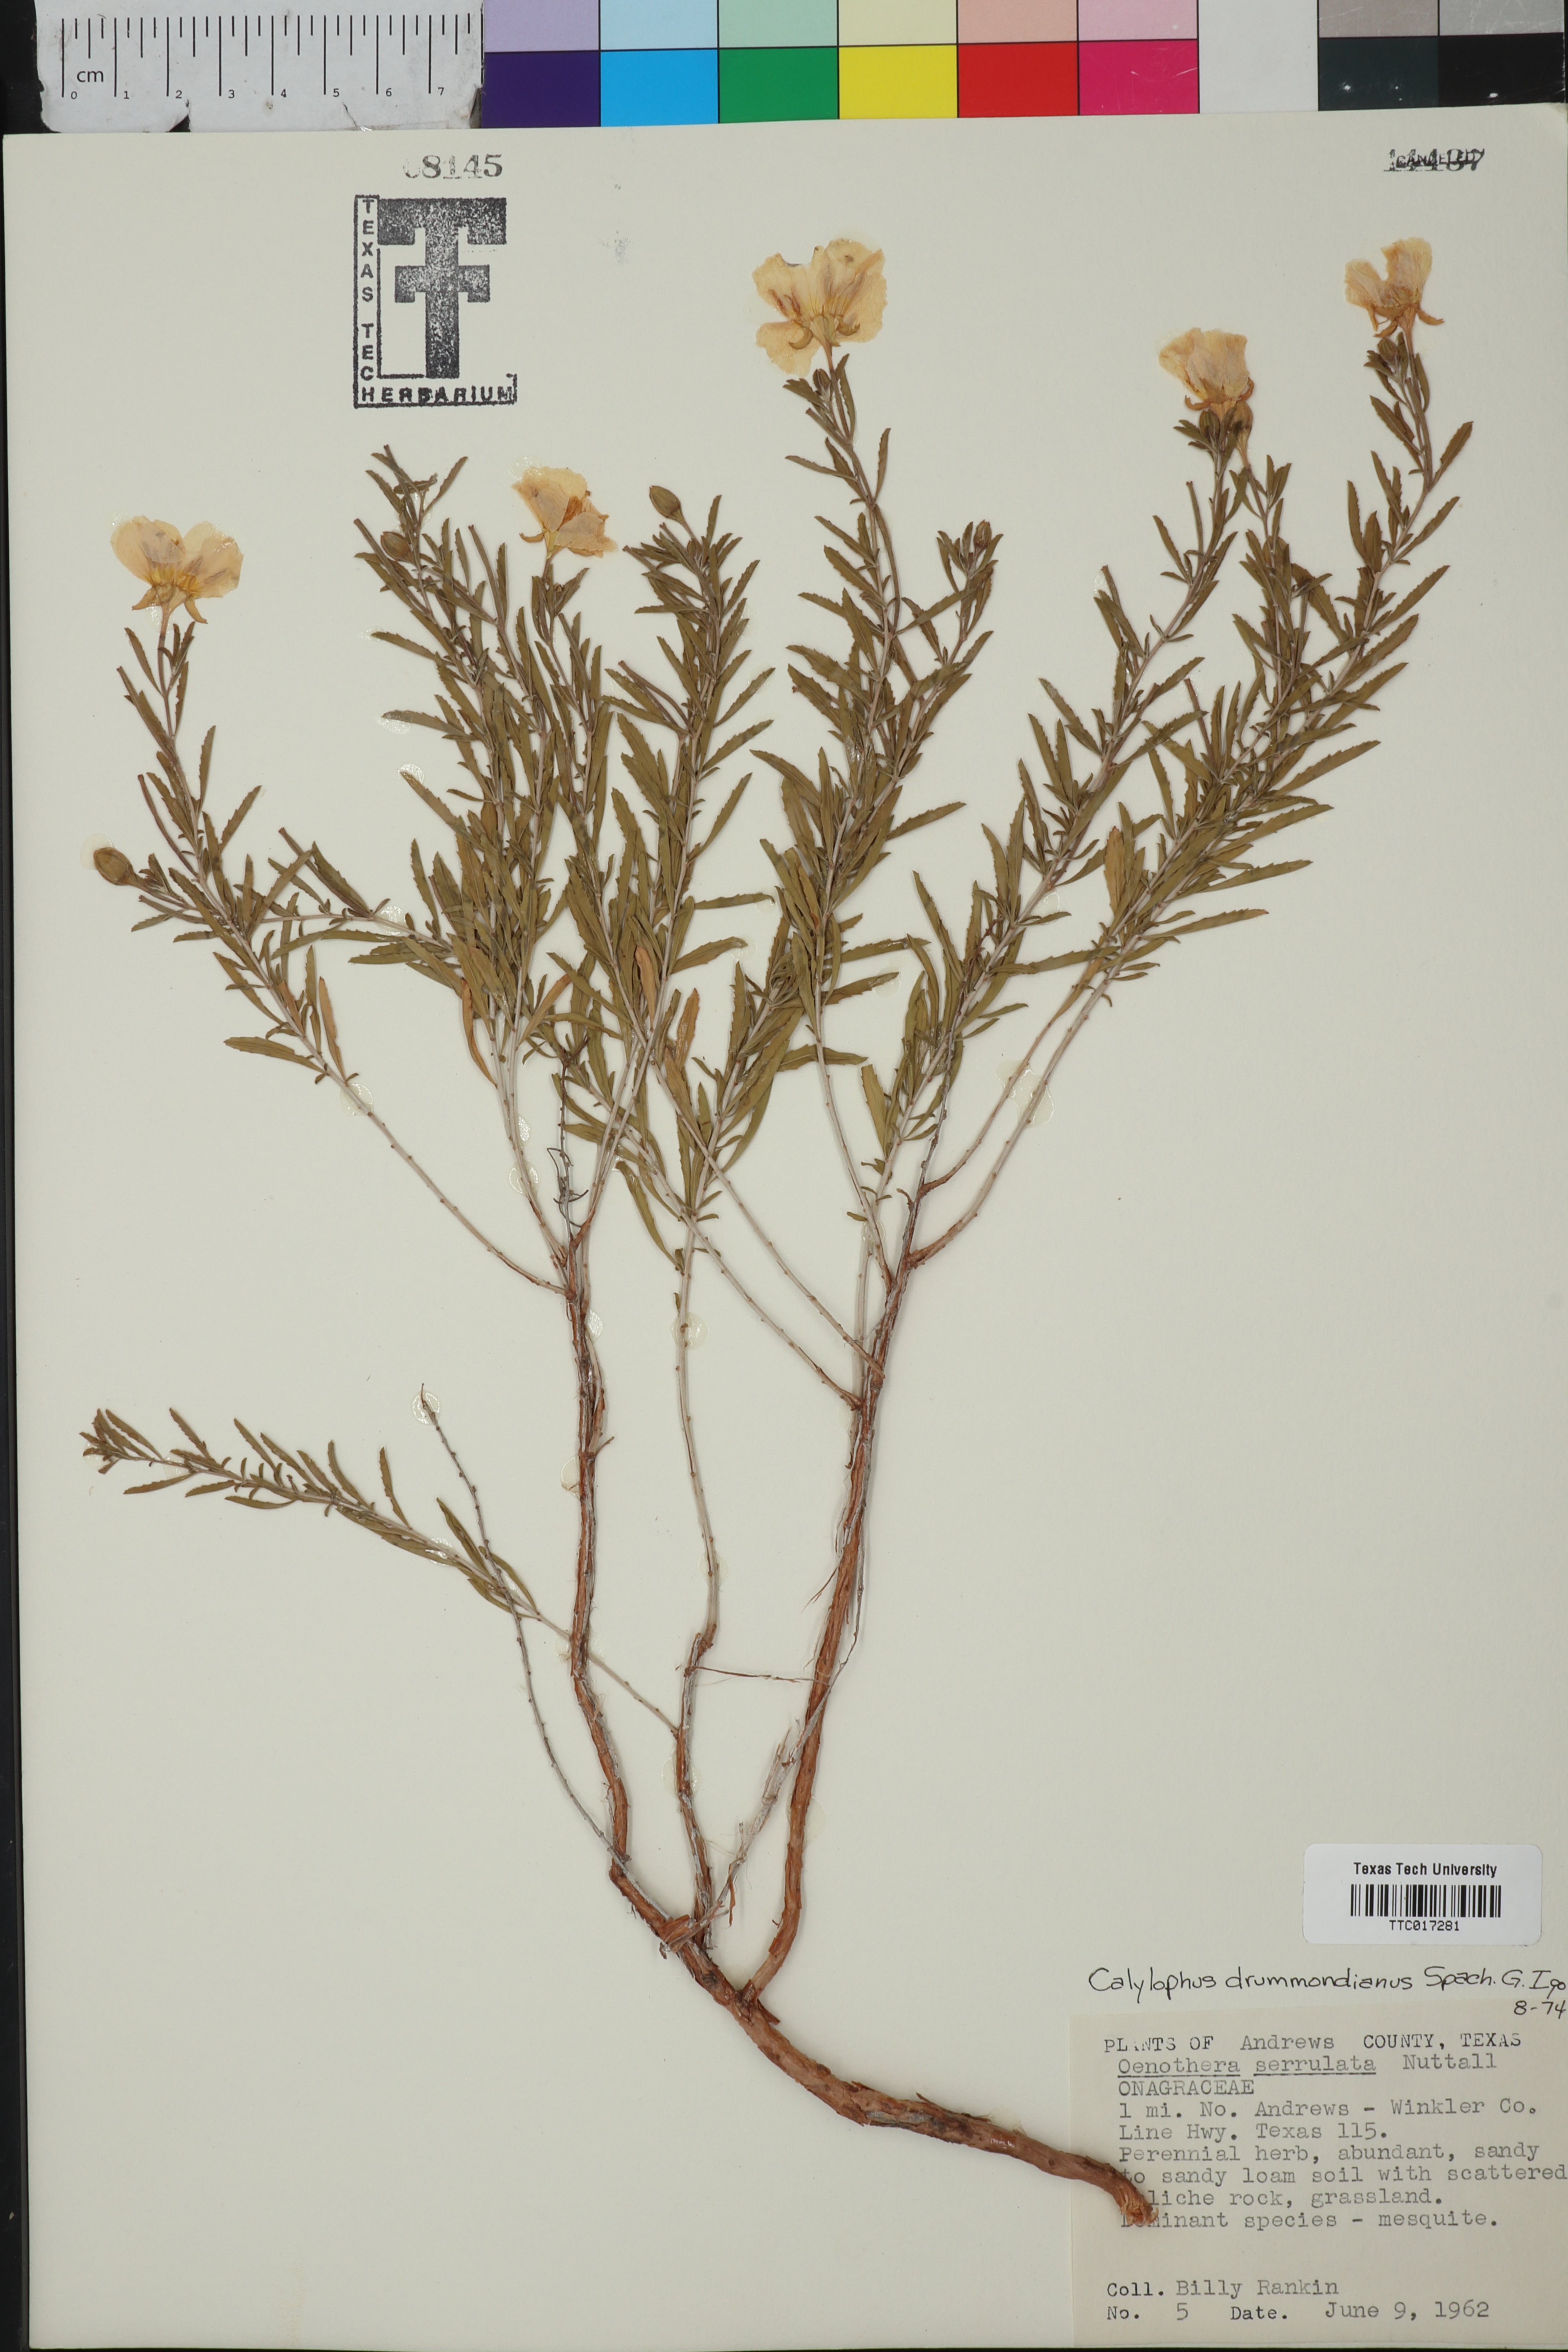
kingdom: Plantae
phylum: Tracheophyta
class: Magnoliopsida
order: Myrtales
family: Onagraceae
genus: Oenothera
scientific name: Oenothera serrulata
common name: Half-shrub calylophus
